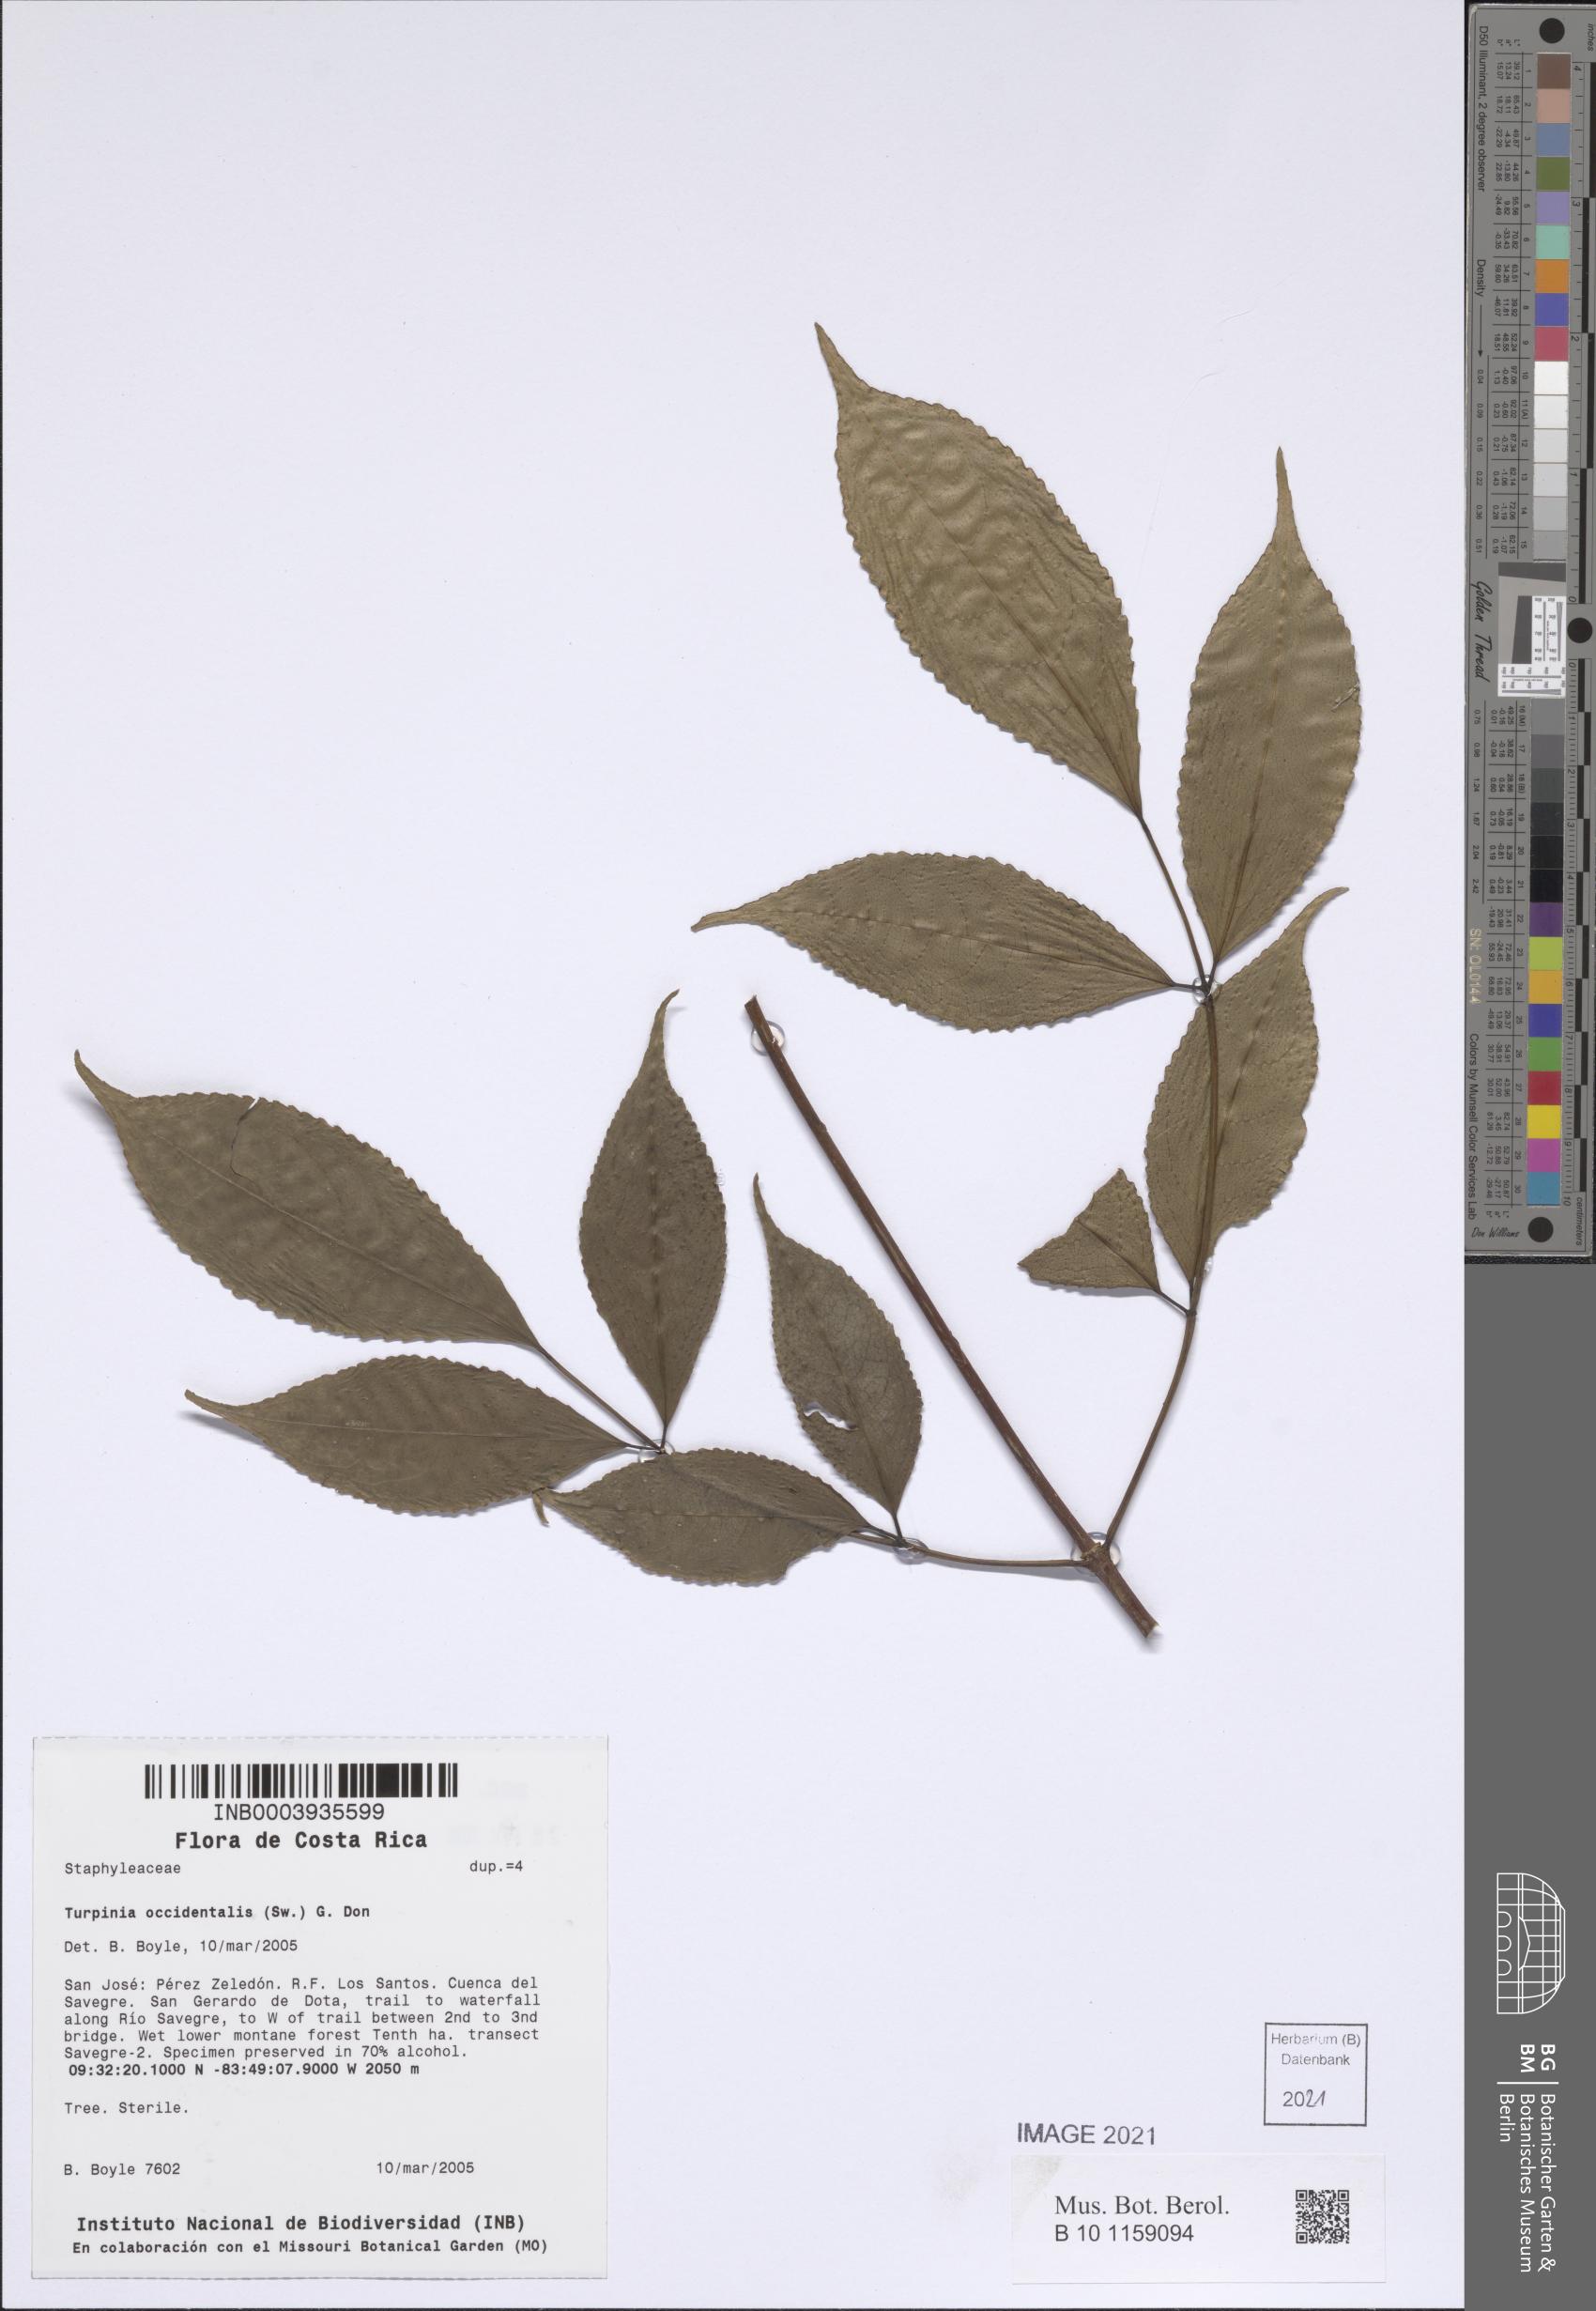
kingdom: Plantae
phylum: Tracheophyta
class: Magnoliopsida
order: Crossosomatales
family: Staphyleaceae
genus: Turpinia
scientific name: Turpinia occidentalis
